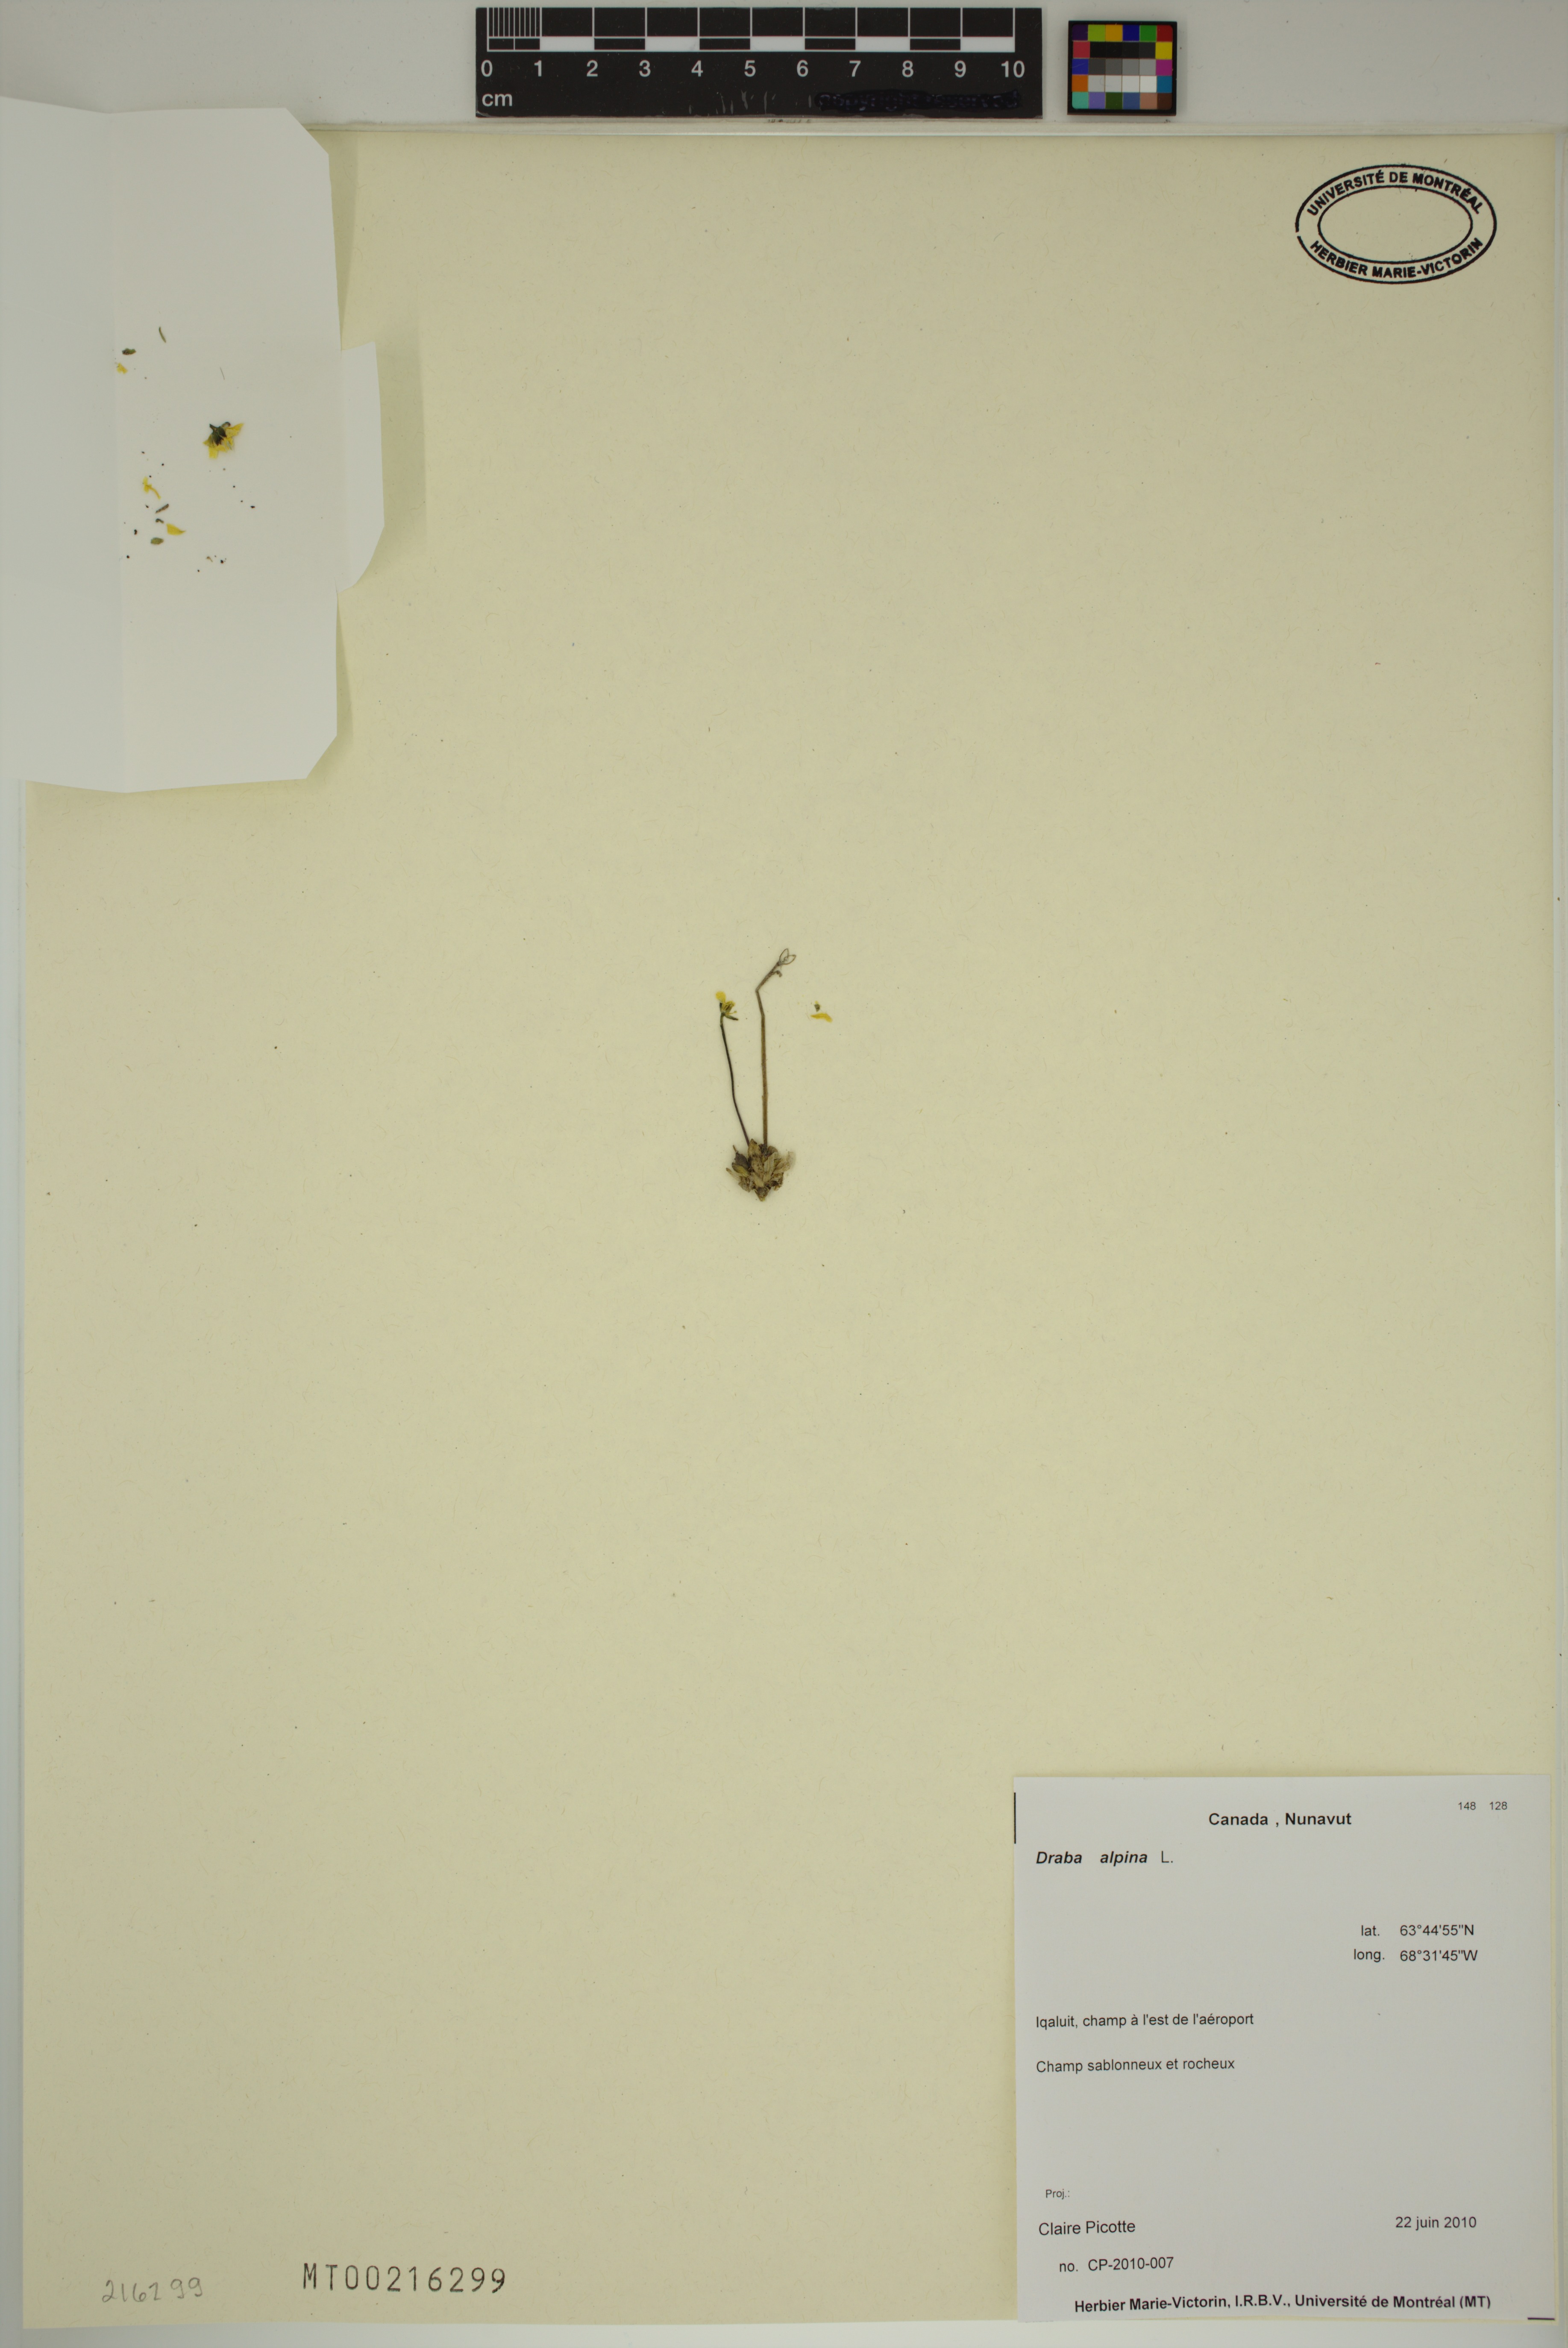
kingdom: Plantae
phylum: Tracheophyta
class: Magnoliopsida
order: Brassicales
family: Brassicaceae
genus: Draba
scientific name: Draba alpina
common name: Alpine draba
